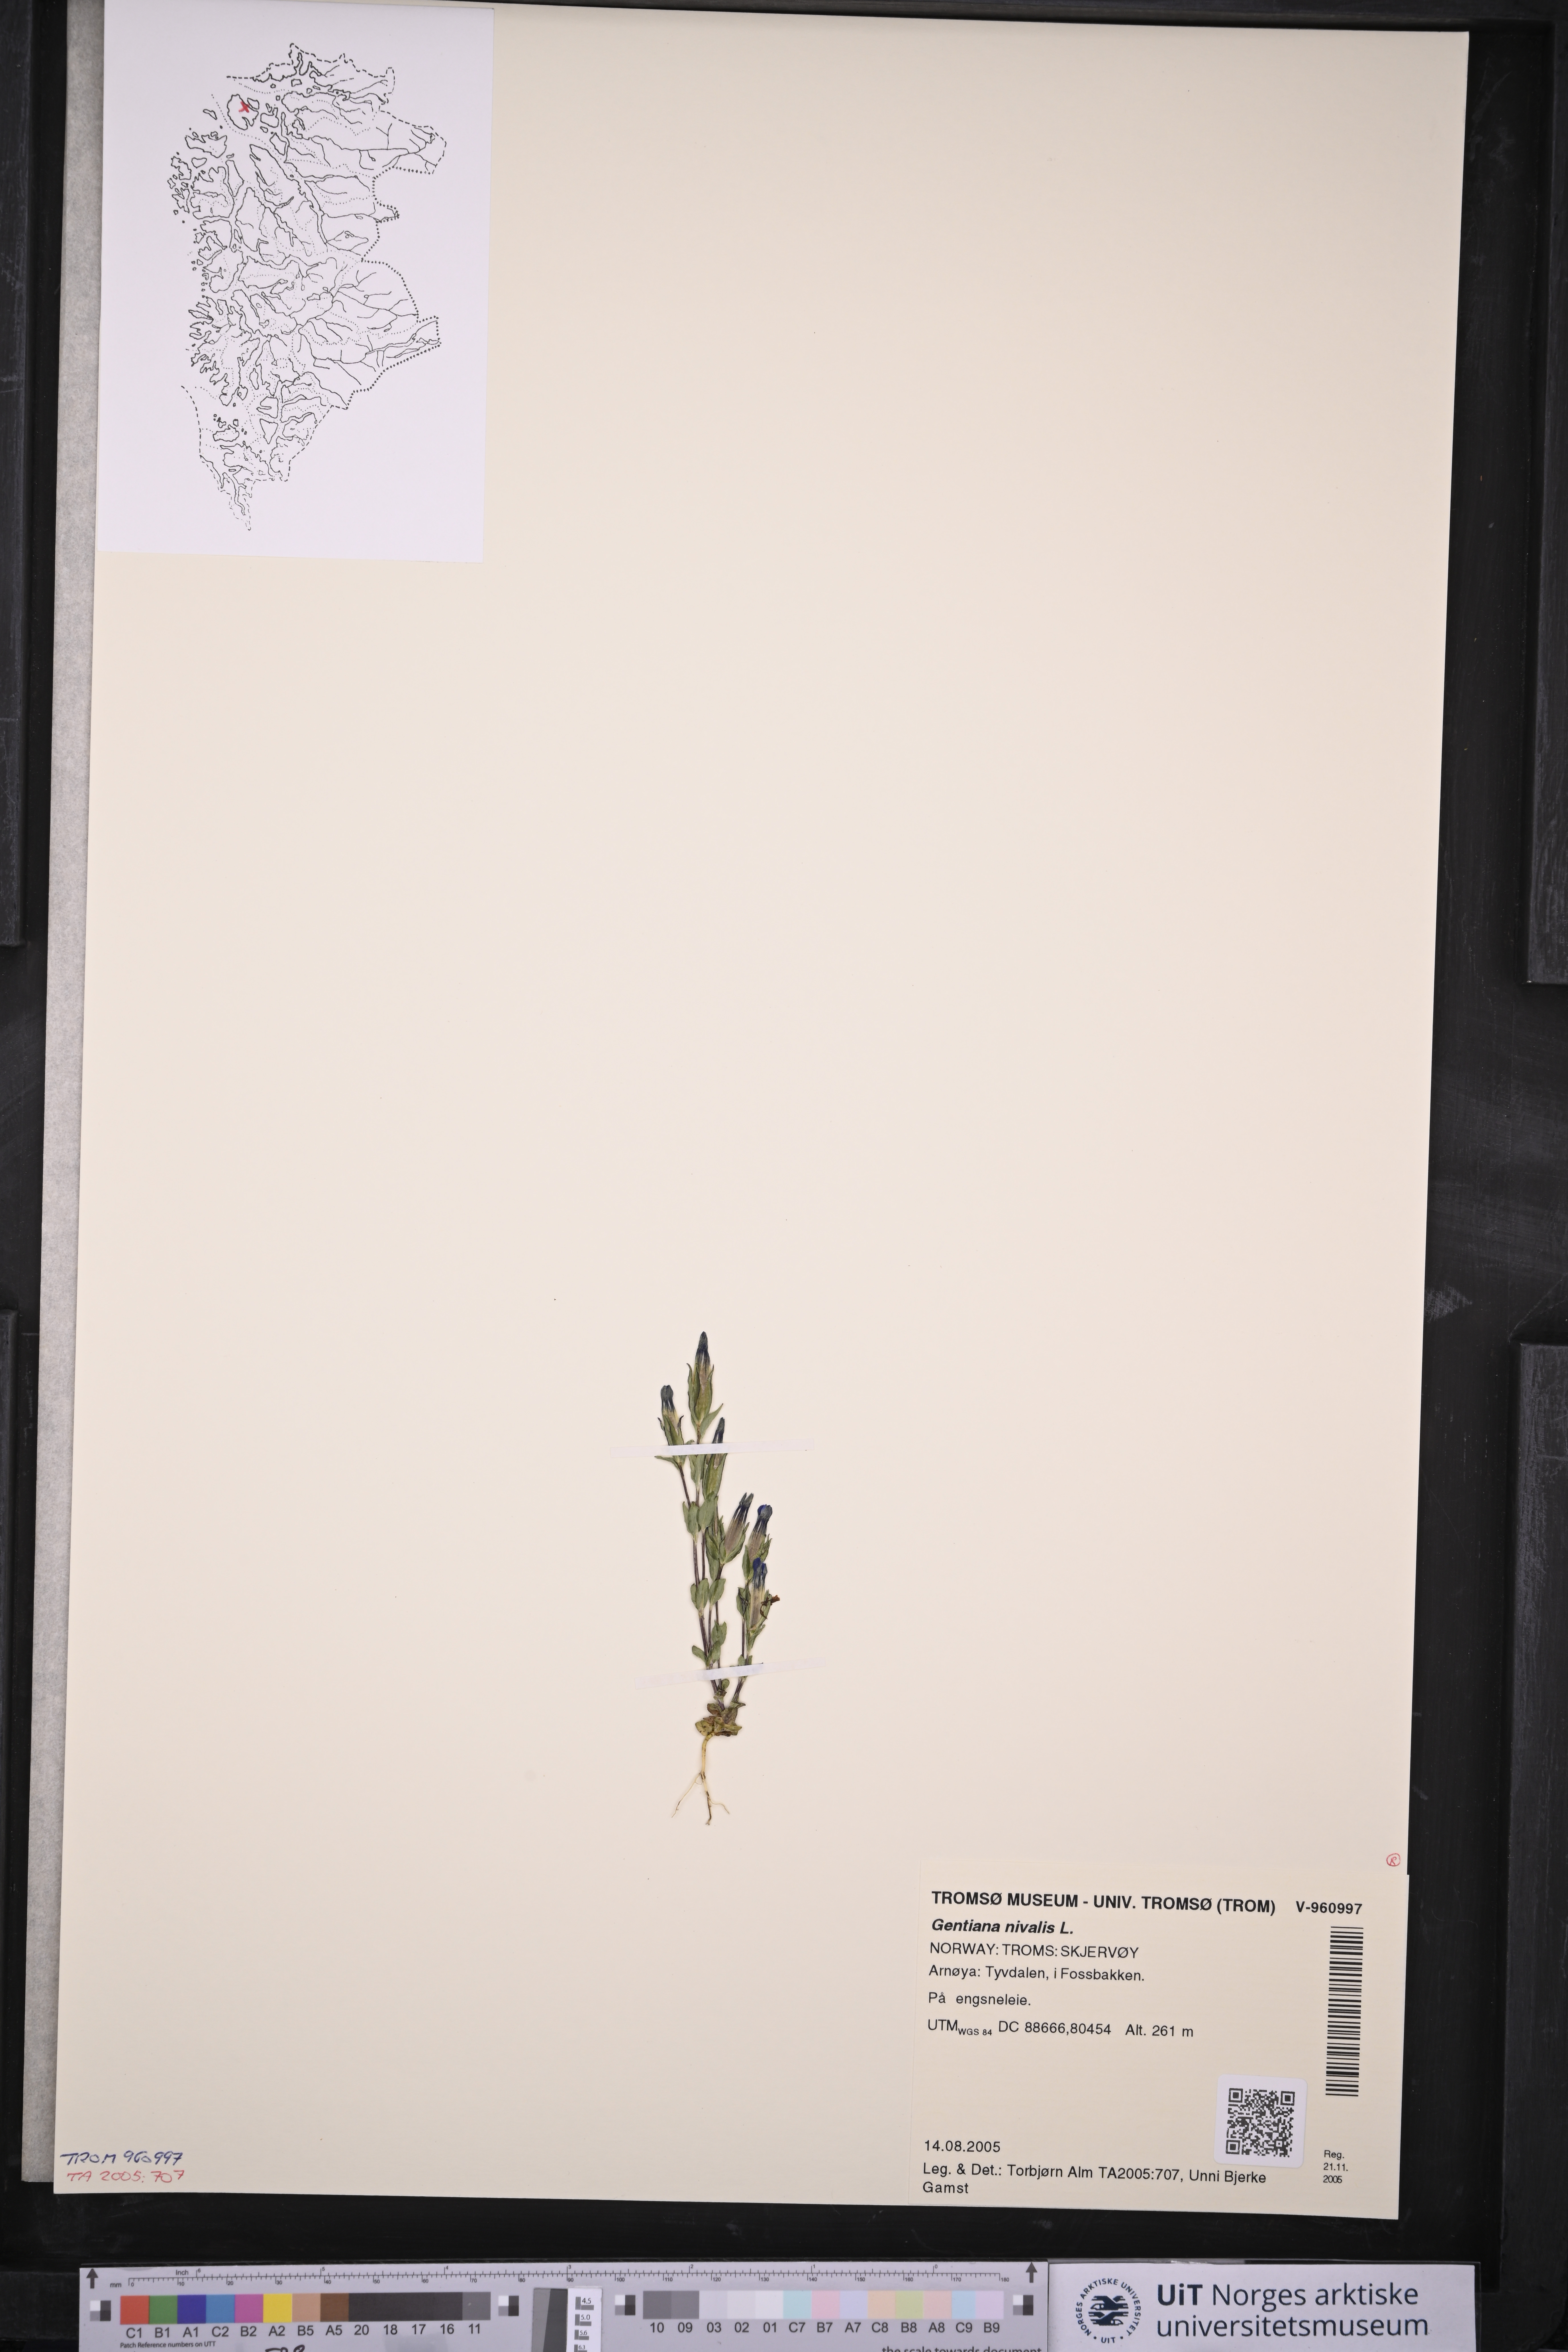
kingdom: Plantae
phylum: Tracheophyta
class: Magnoliopsida
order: Gentianales
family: Gentianaceae
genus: Gentiana
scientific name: Gentiana nivalis
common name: Alpine gentian
